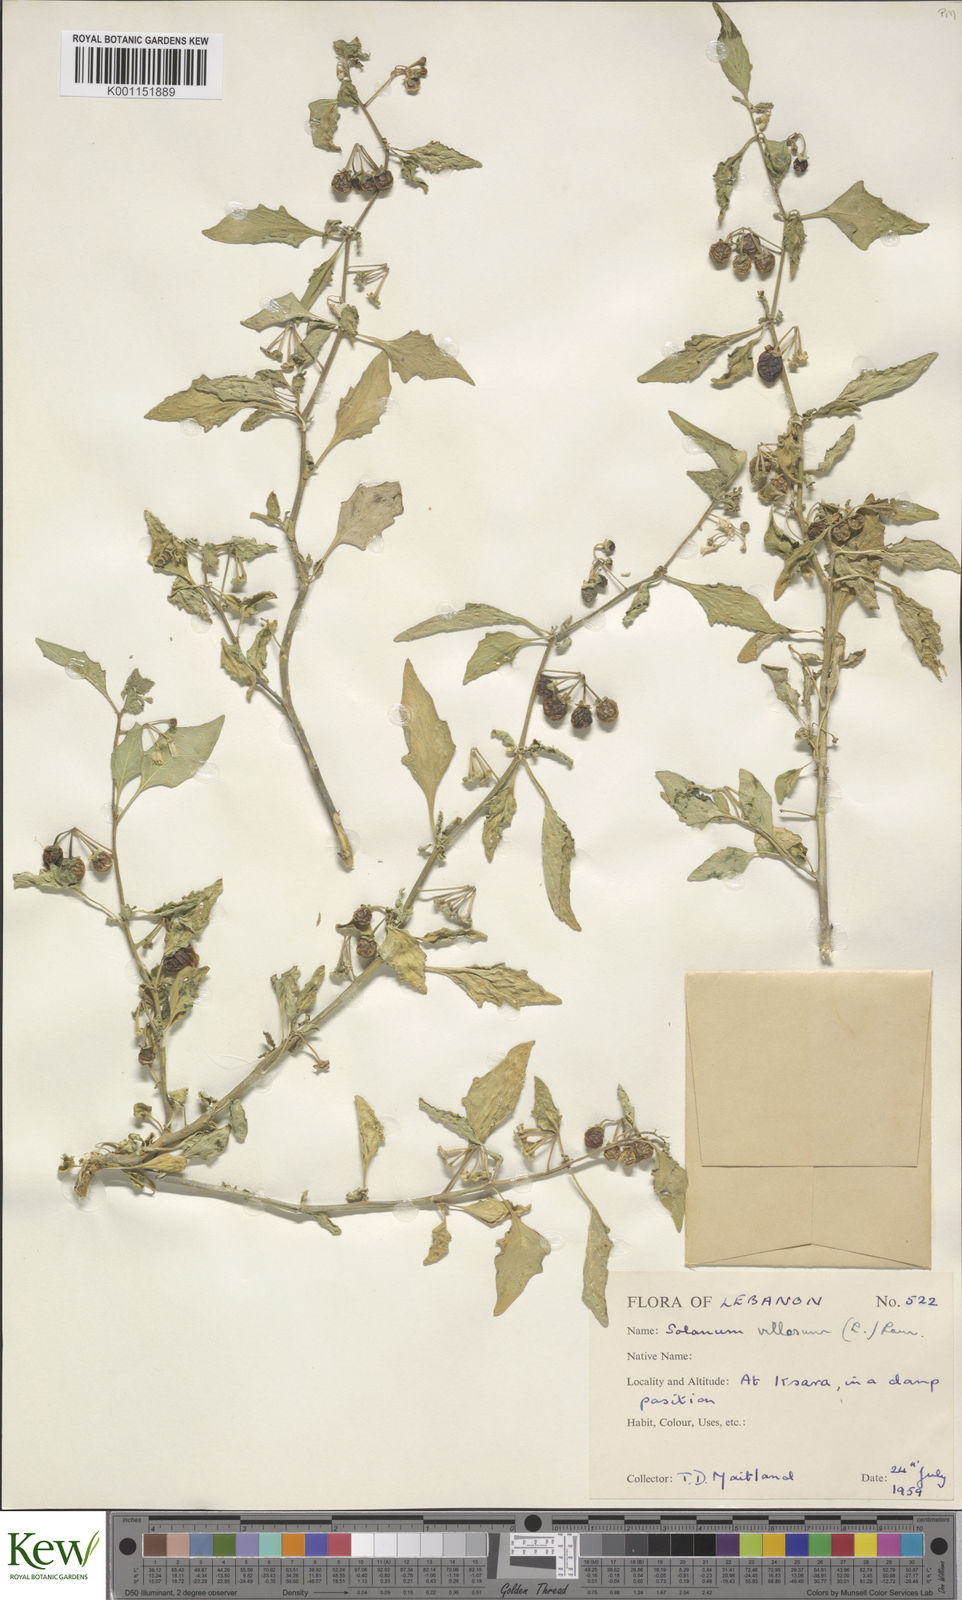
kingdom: Plantae
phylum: Tracheophyta
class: Magnoliopsida
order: Solanales
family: Solanaceae
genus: Solanum
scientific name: Solanum villosum
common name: Red nightshade
